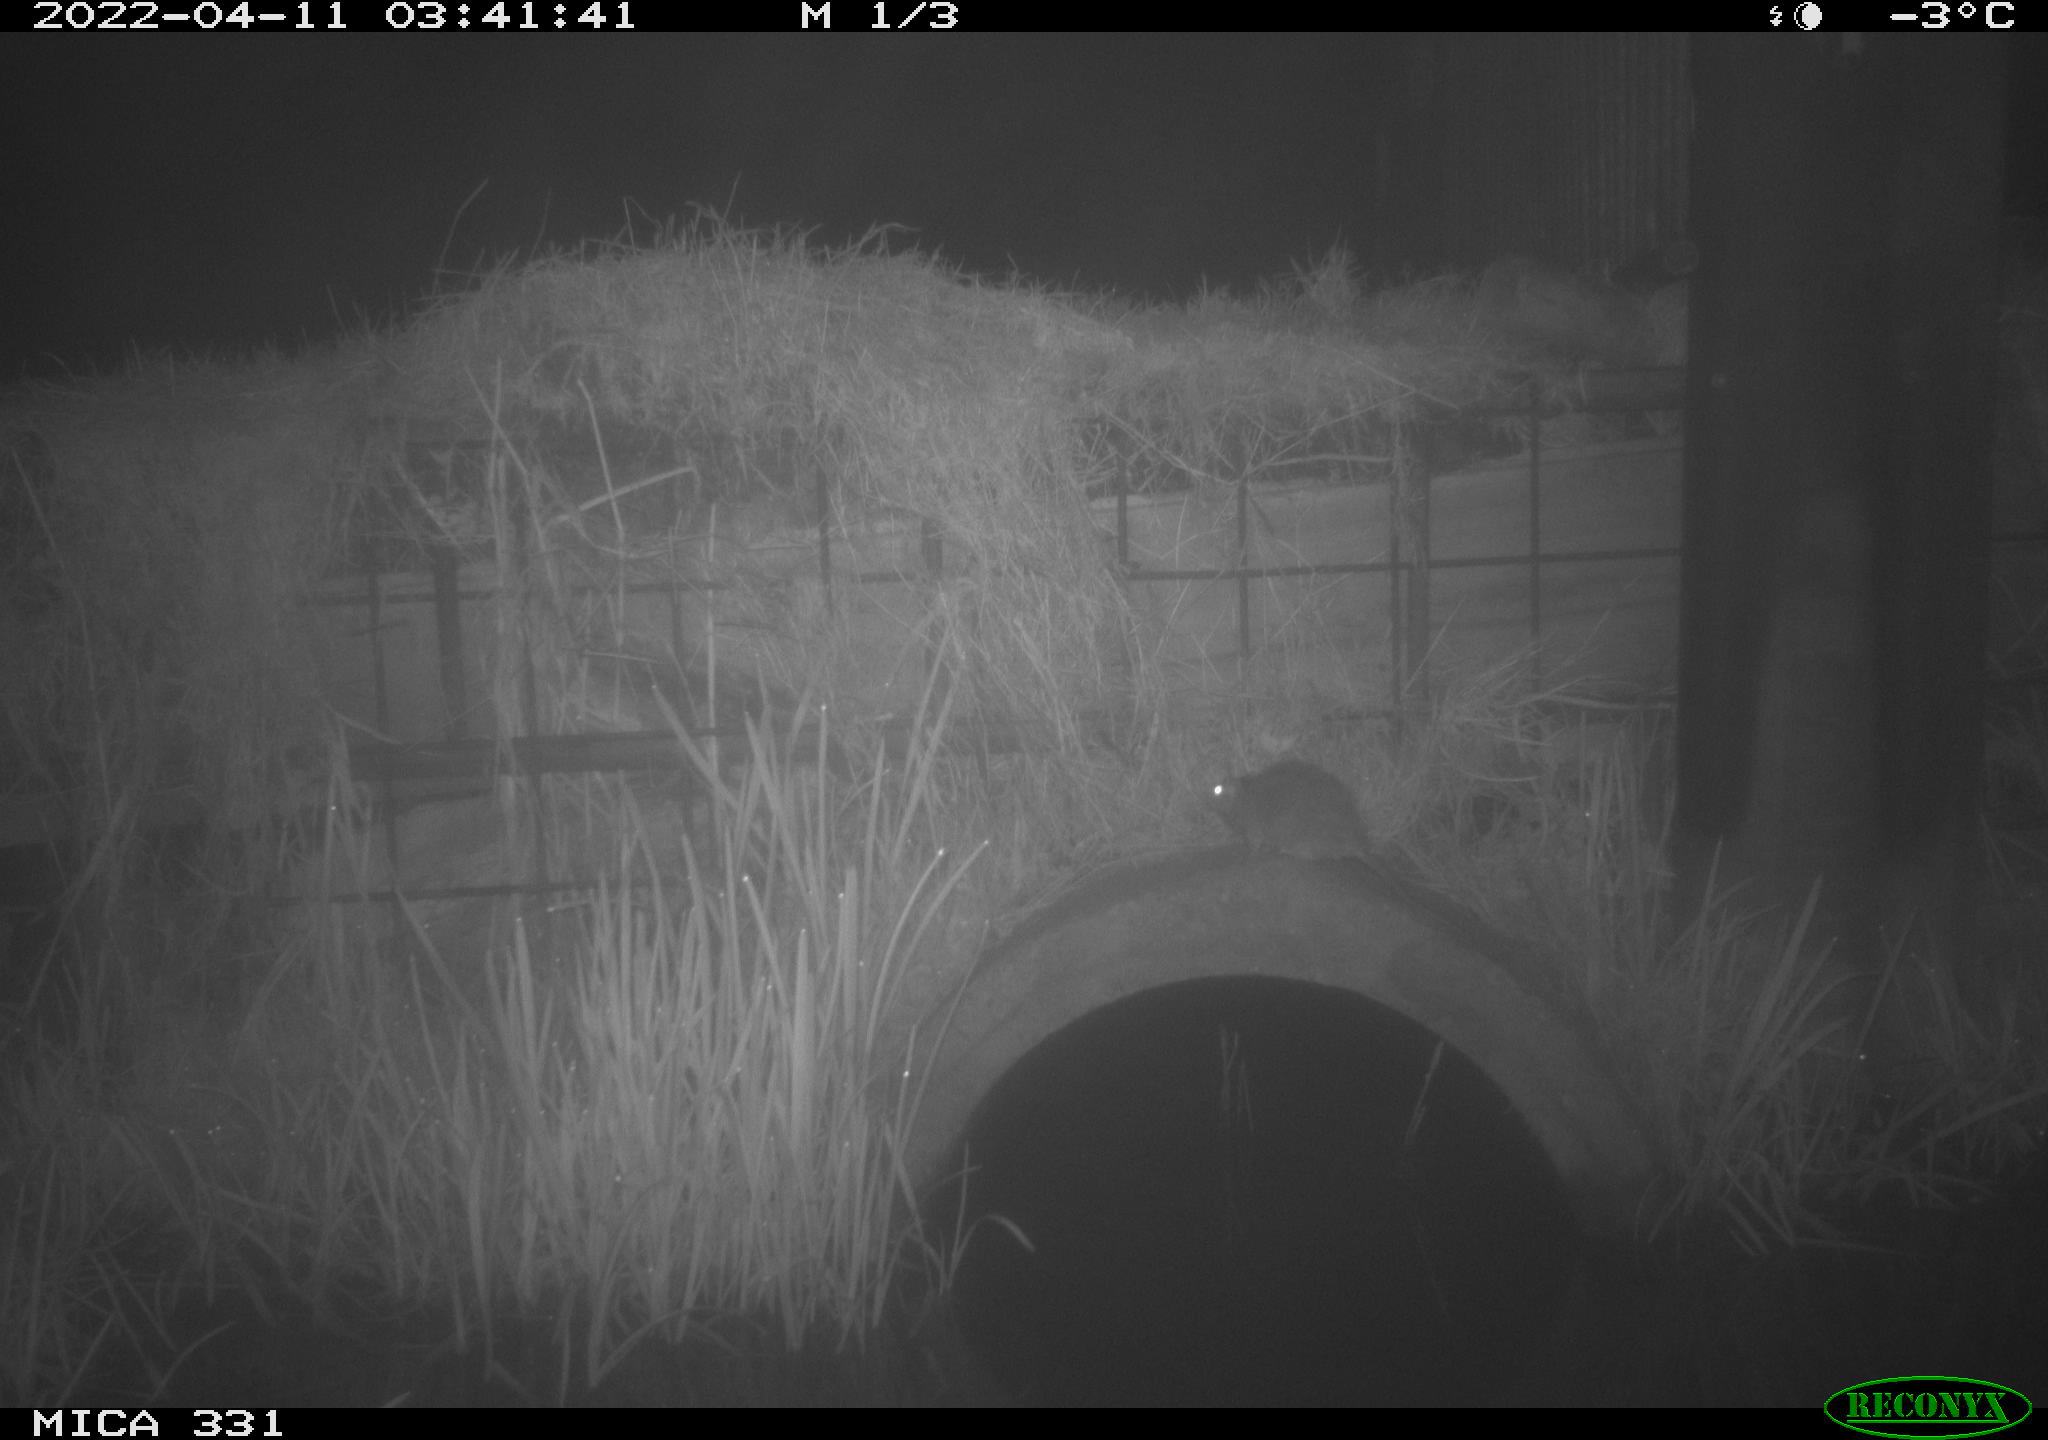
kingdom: Animalia
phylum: Chordata
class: Mammalia
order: Rodentia
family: Muridae
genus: Rattus
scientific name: Rattus norvegicus
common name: Brown rat
